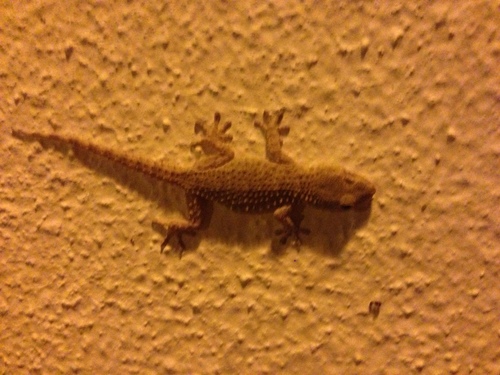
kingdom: Animalia
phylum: Chordata
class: Squamata
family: Phyllodactylidae
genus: Tarentola
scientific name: Tarentola mauritanica
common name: Moorish gecko
